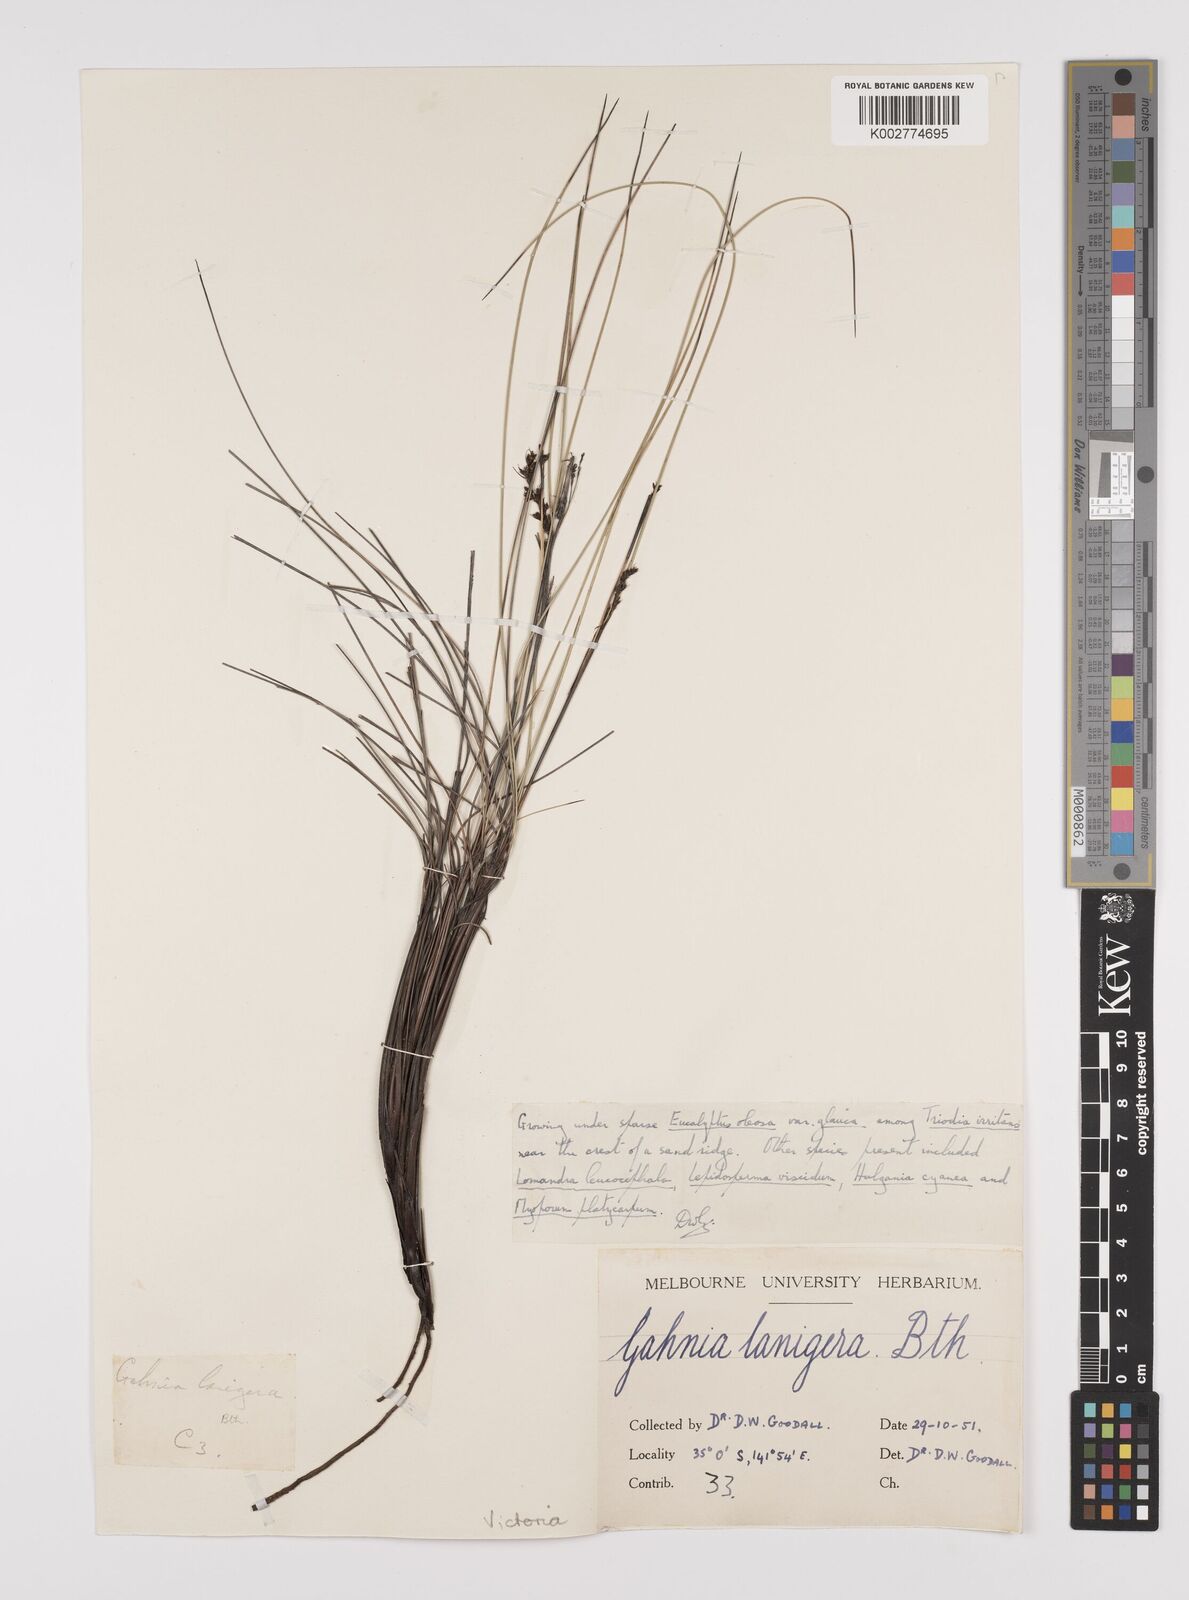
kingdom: Plantae
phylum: Tracheophyta
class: Liliopsida
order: Poales
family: Cyperaceae
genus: Gahnia
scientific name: Gahnia lanigera
